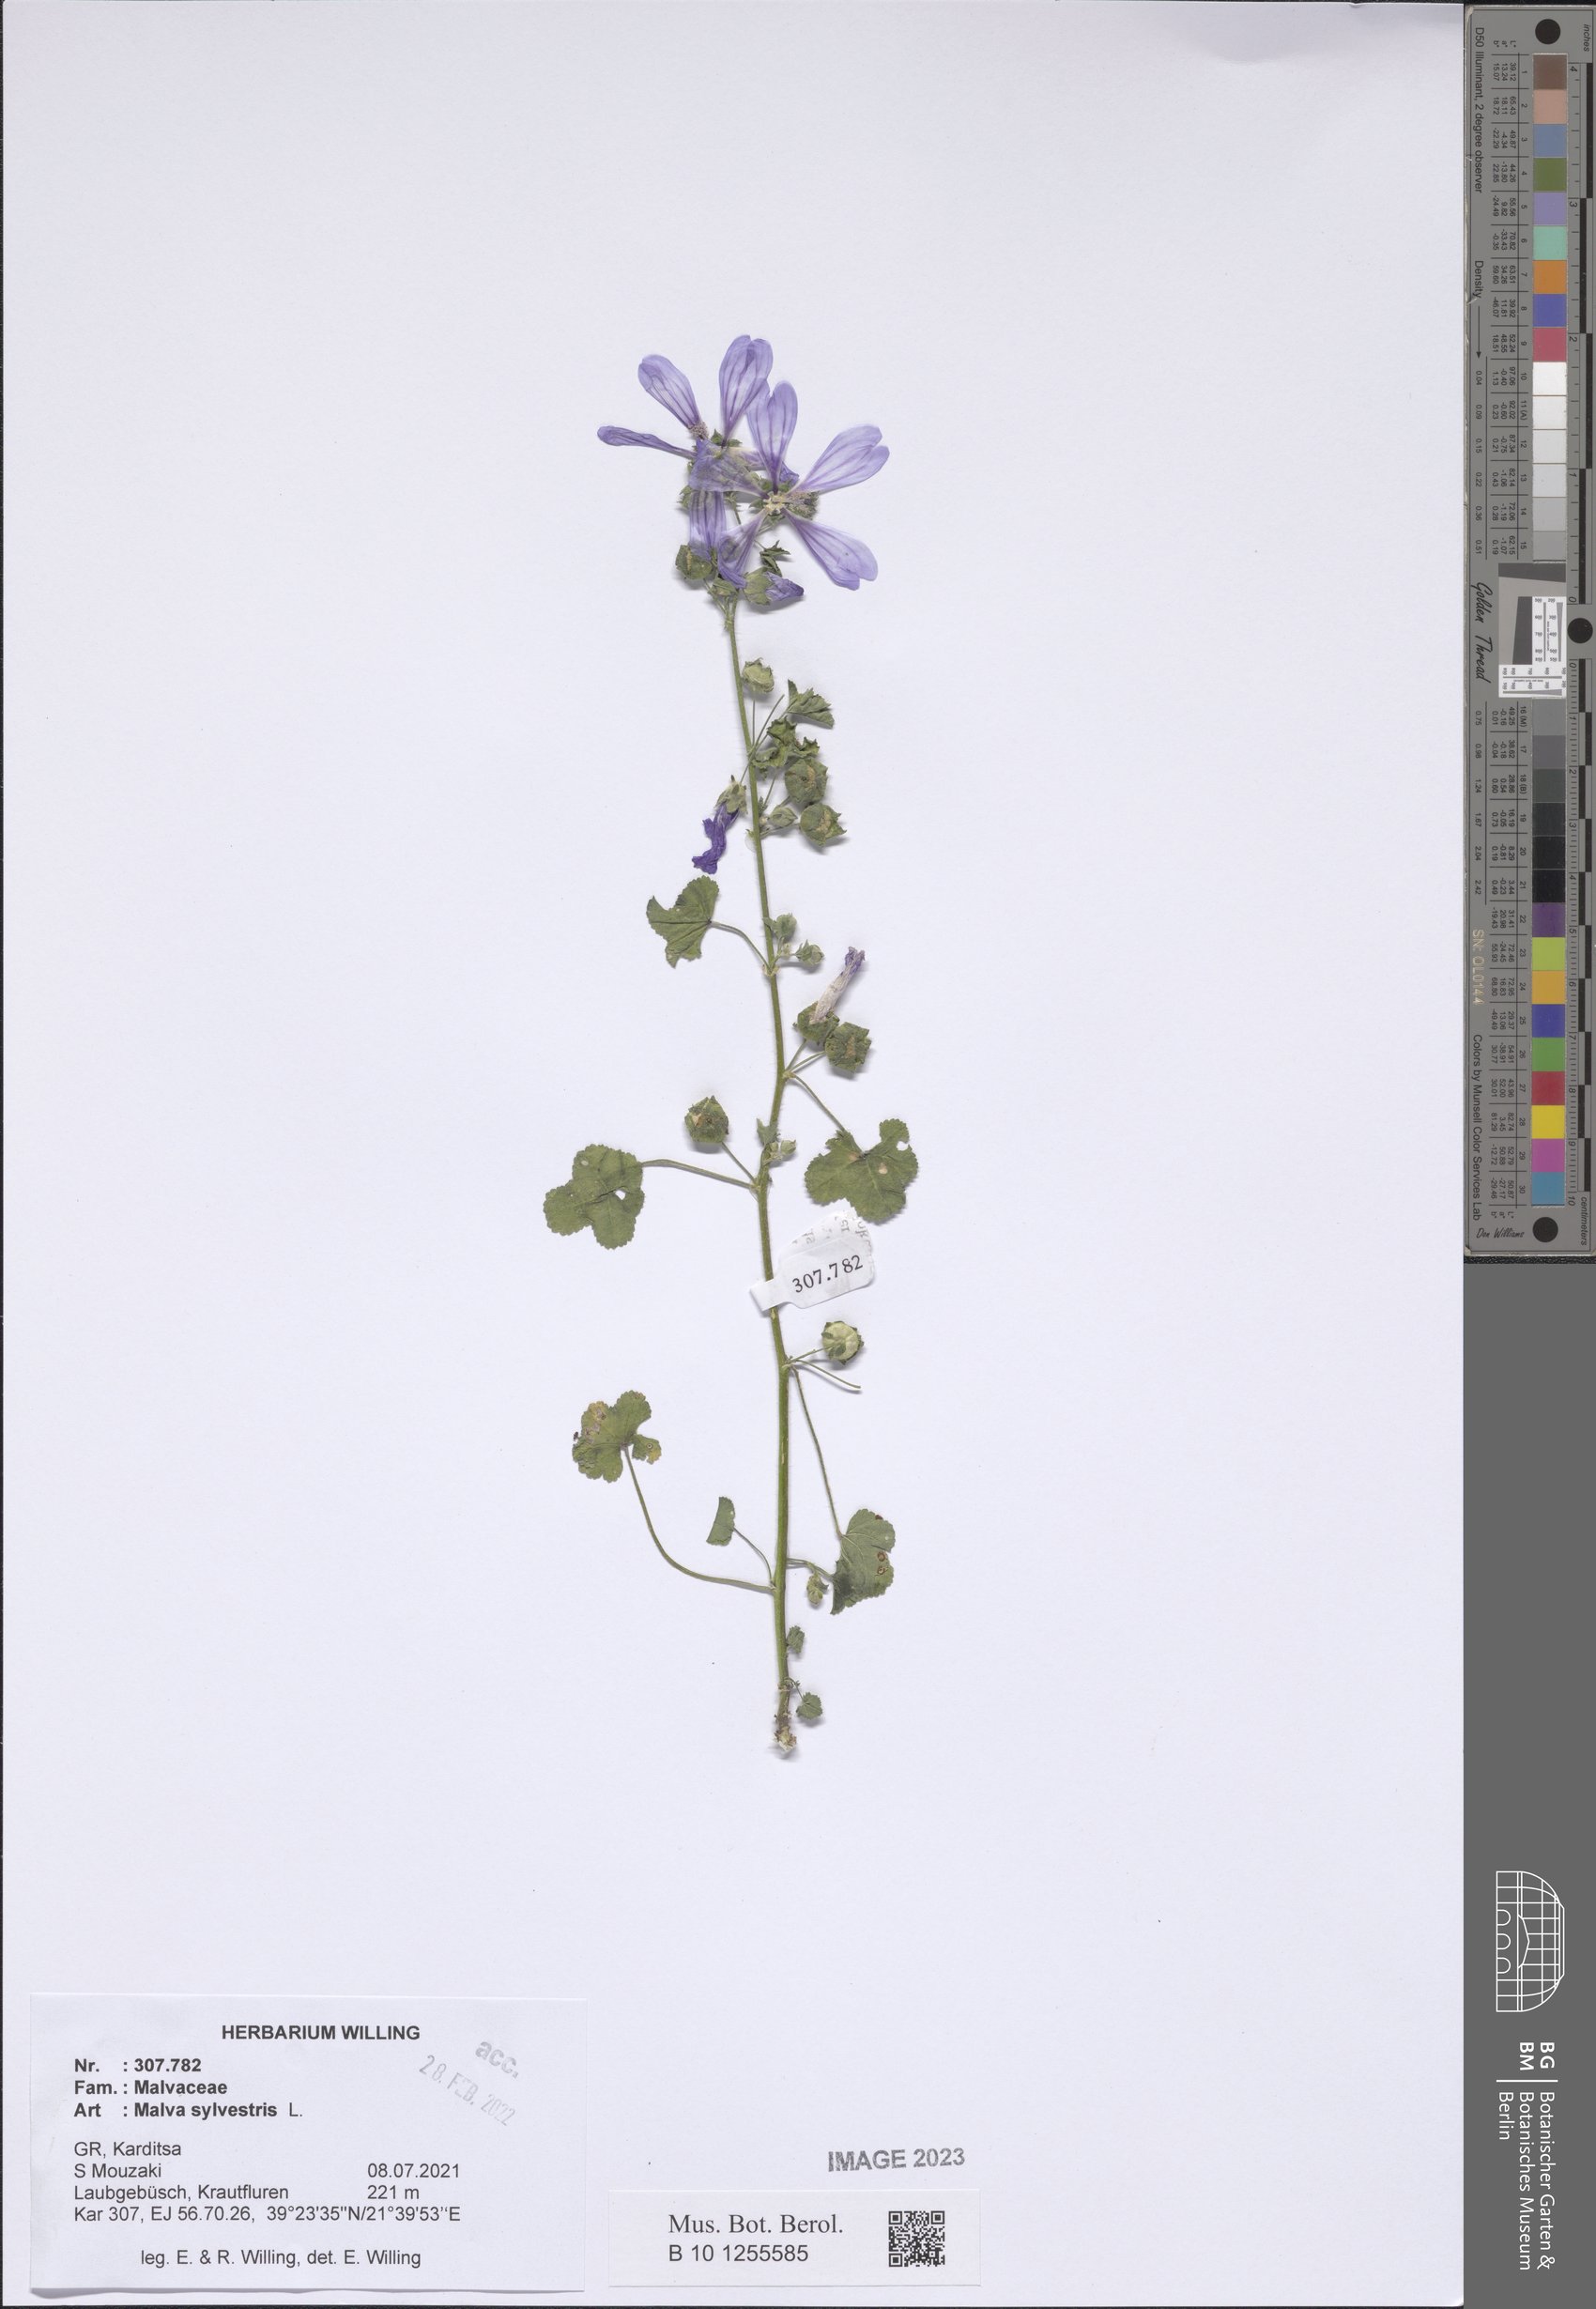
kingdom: Plantae
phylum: Tracheophyta
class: Magnoliopsida
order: Malvales
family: Malvaceae
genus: Malva
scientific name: Malva sylvestris
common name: Common mallow
